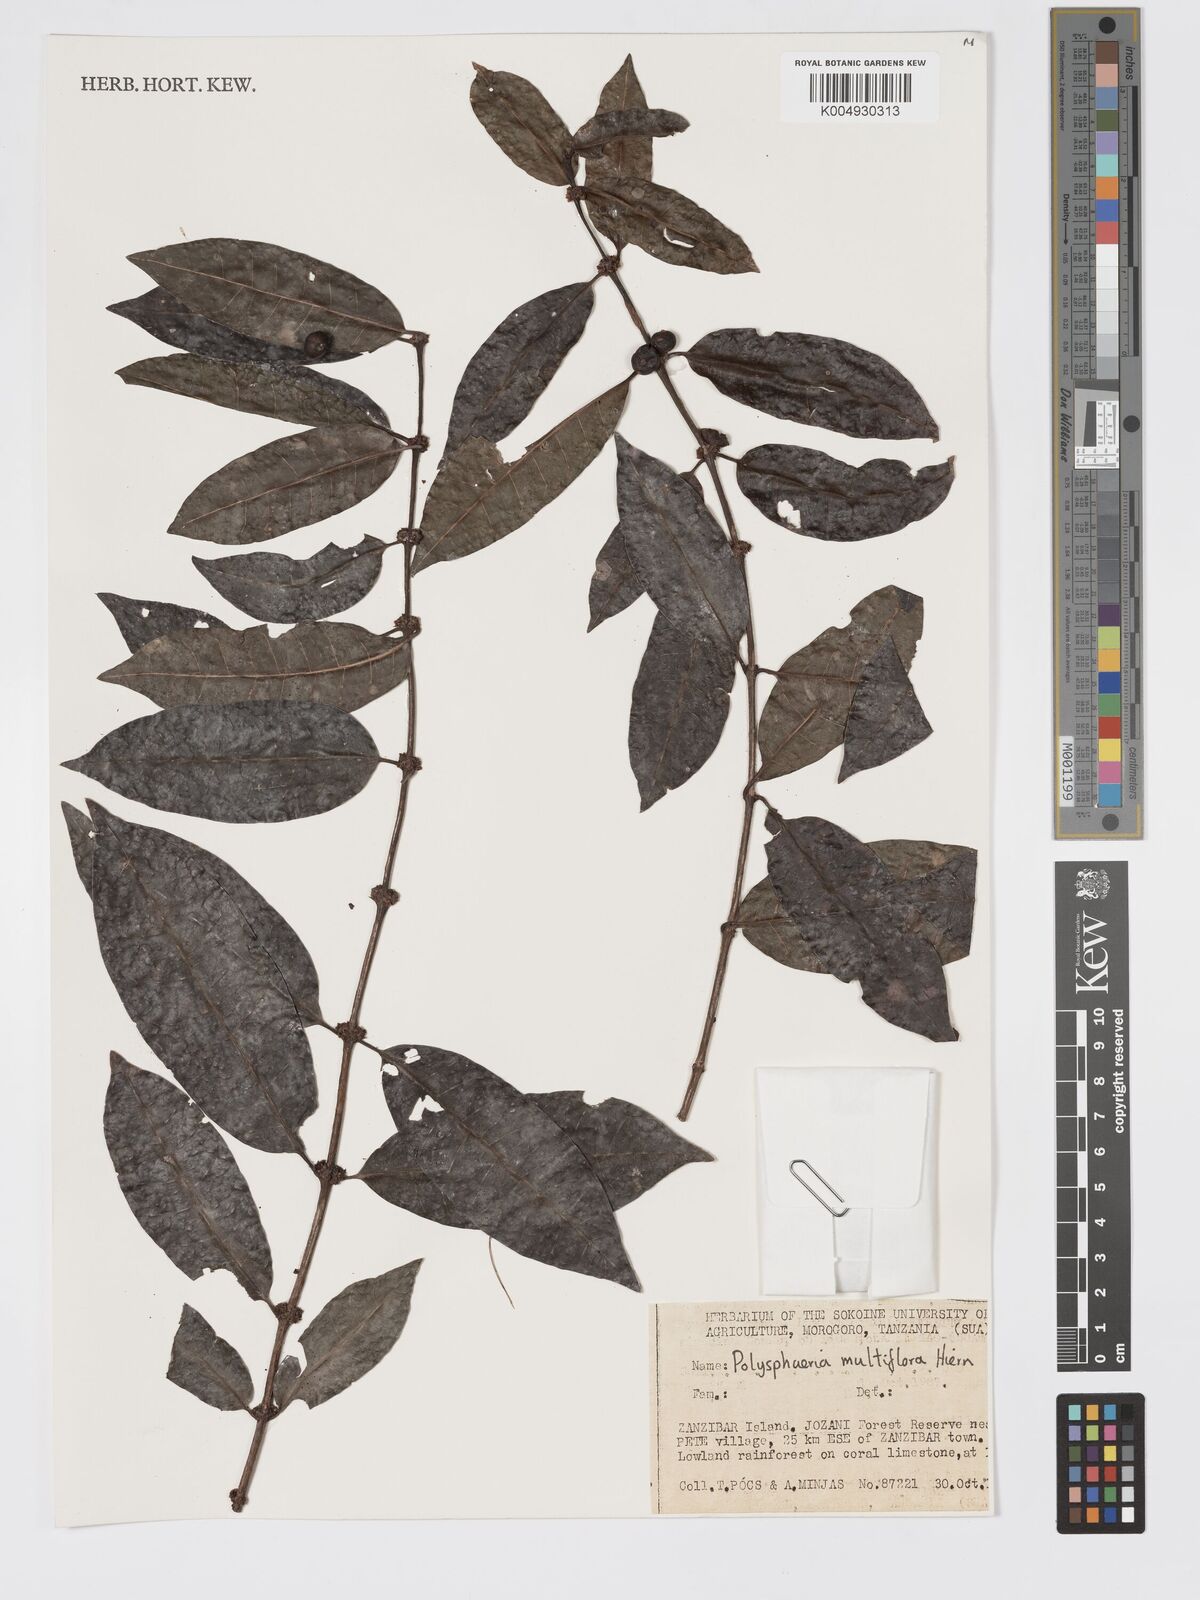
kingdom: Plantae
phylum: Tracheophyta
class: Magnoliopsida
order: Gentianales
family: Rubiaceae
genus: Polysphaeria
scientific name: Polysphaeria multiflora
